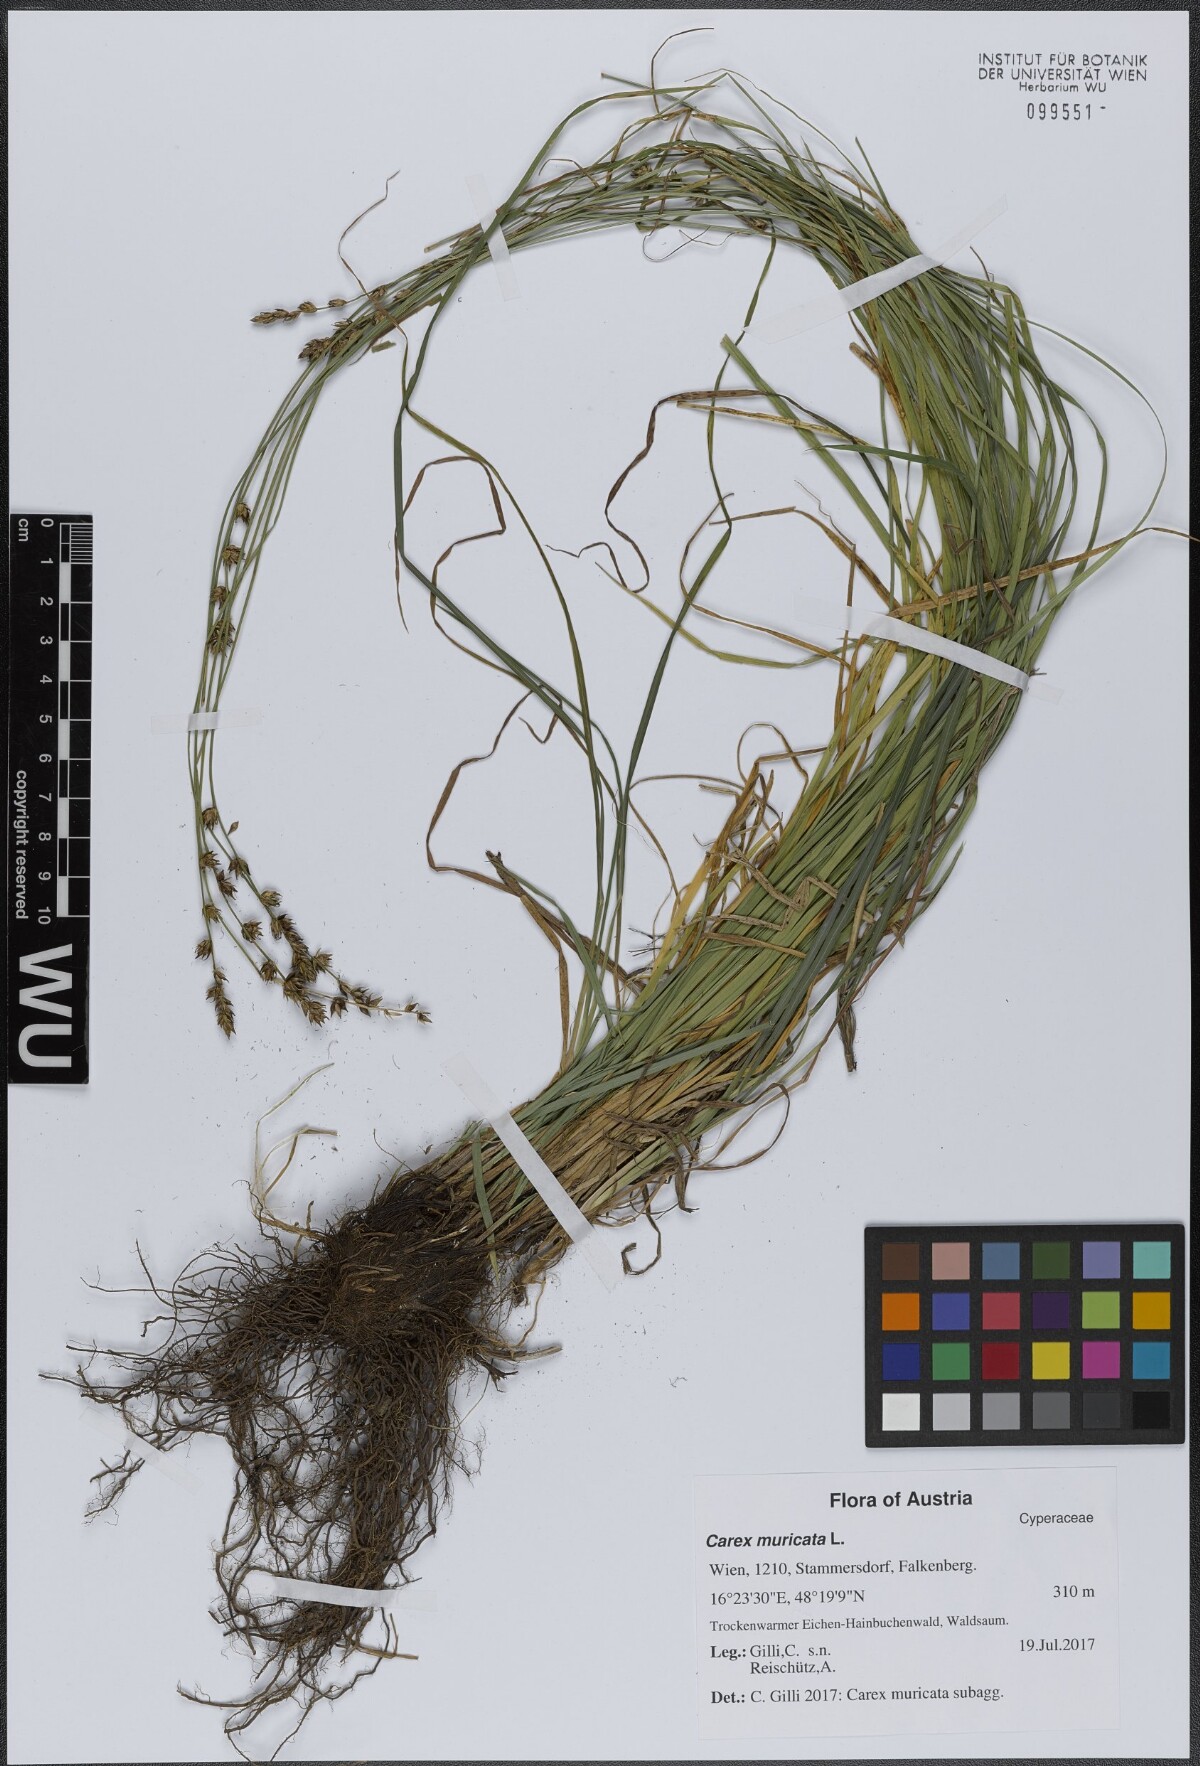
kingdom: Plantae
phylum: Tracheophyta
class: Liliopsida
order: Poales
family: Cyperaceae
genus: Carex
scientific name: Carex muricata
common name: Rough sedge
